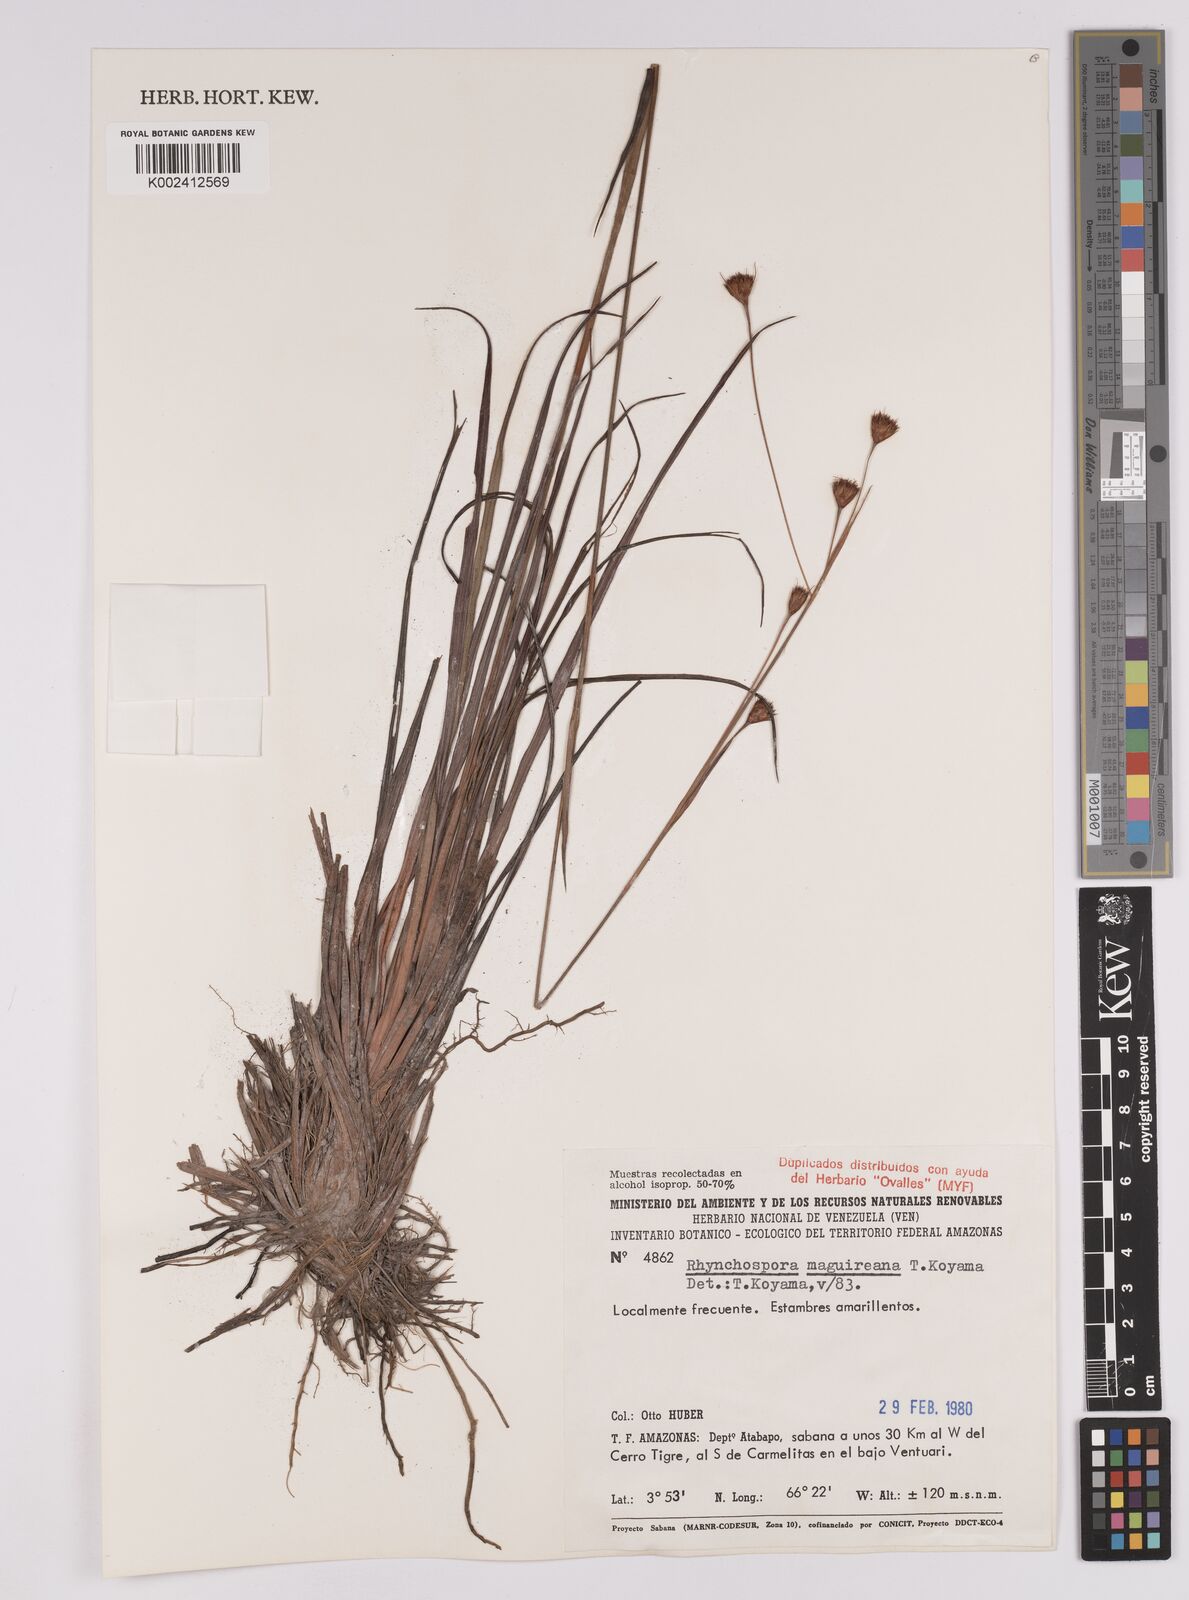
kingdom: Plantae
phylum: Tracheophyta
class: Liliopsida
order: Poales
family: Cyperaceae
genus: Rhynchospora
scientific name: Rhynchospora maguireana
